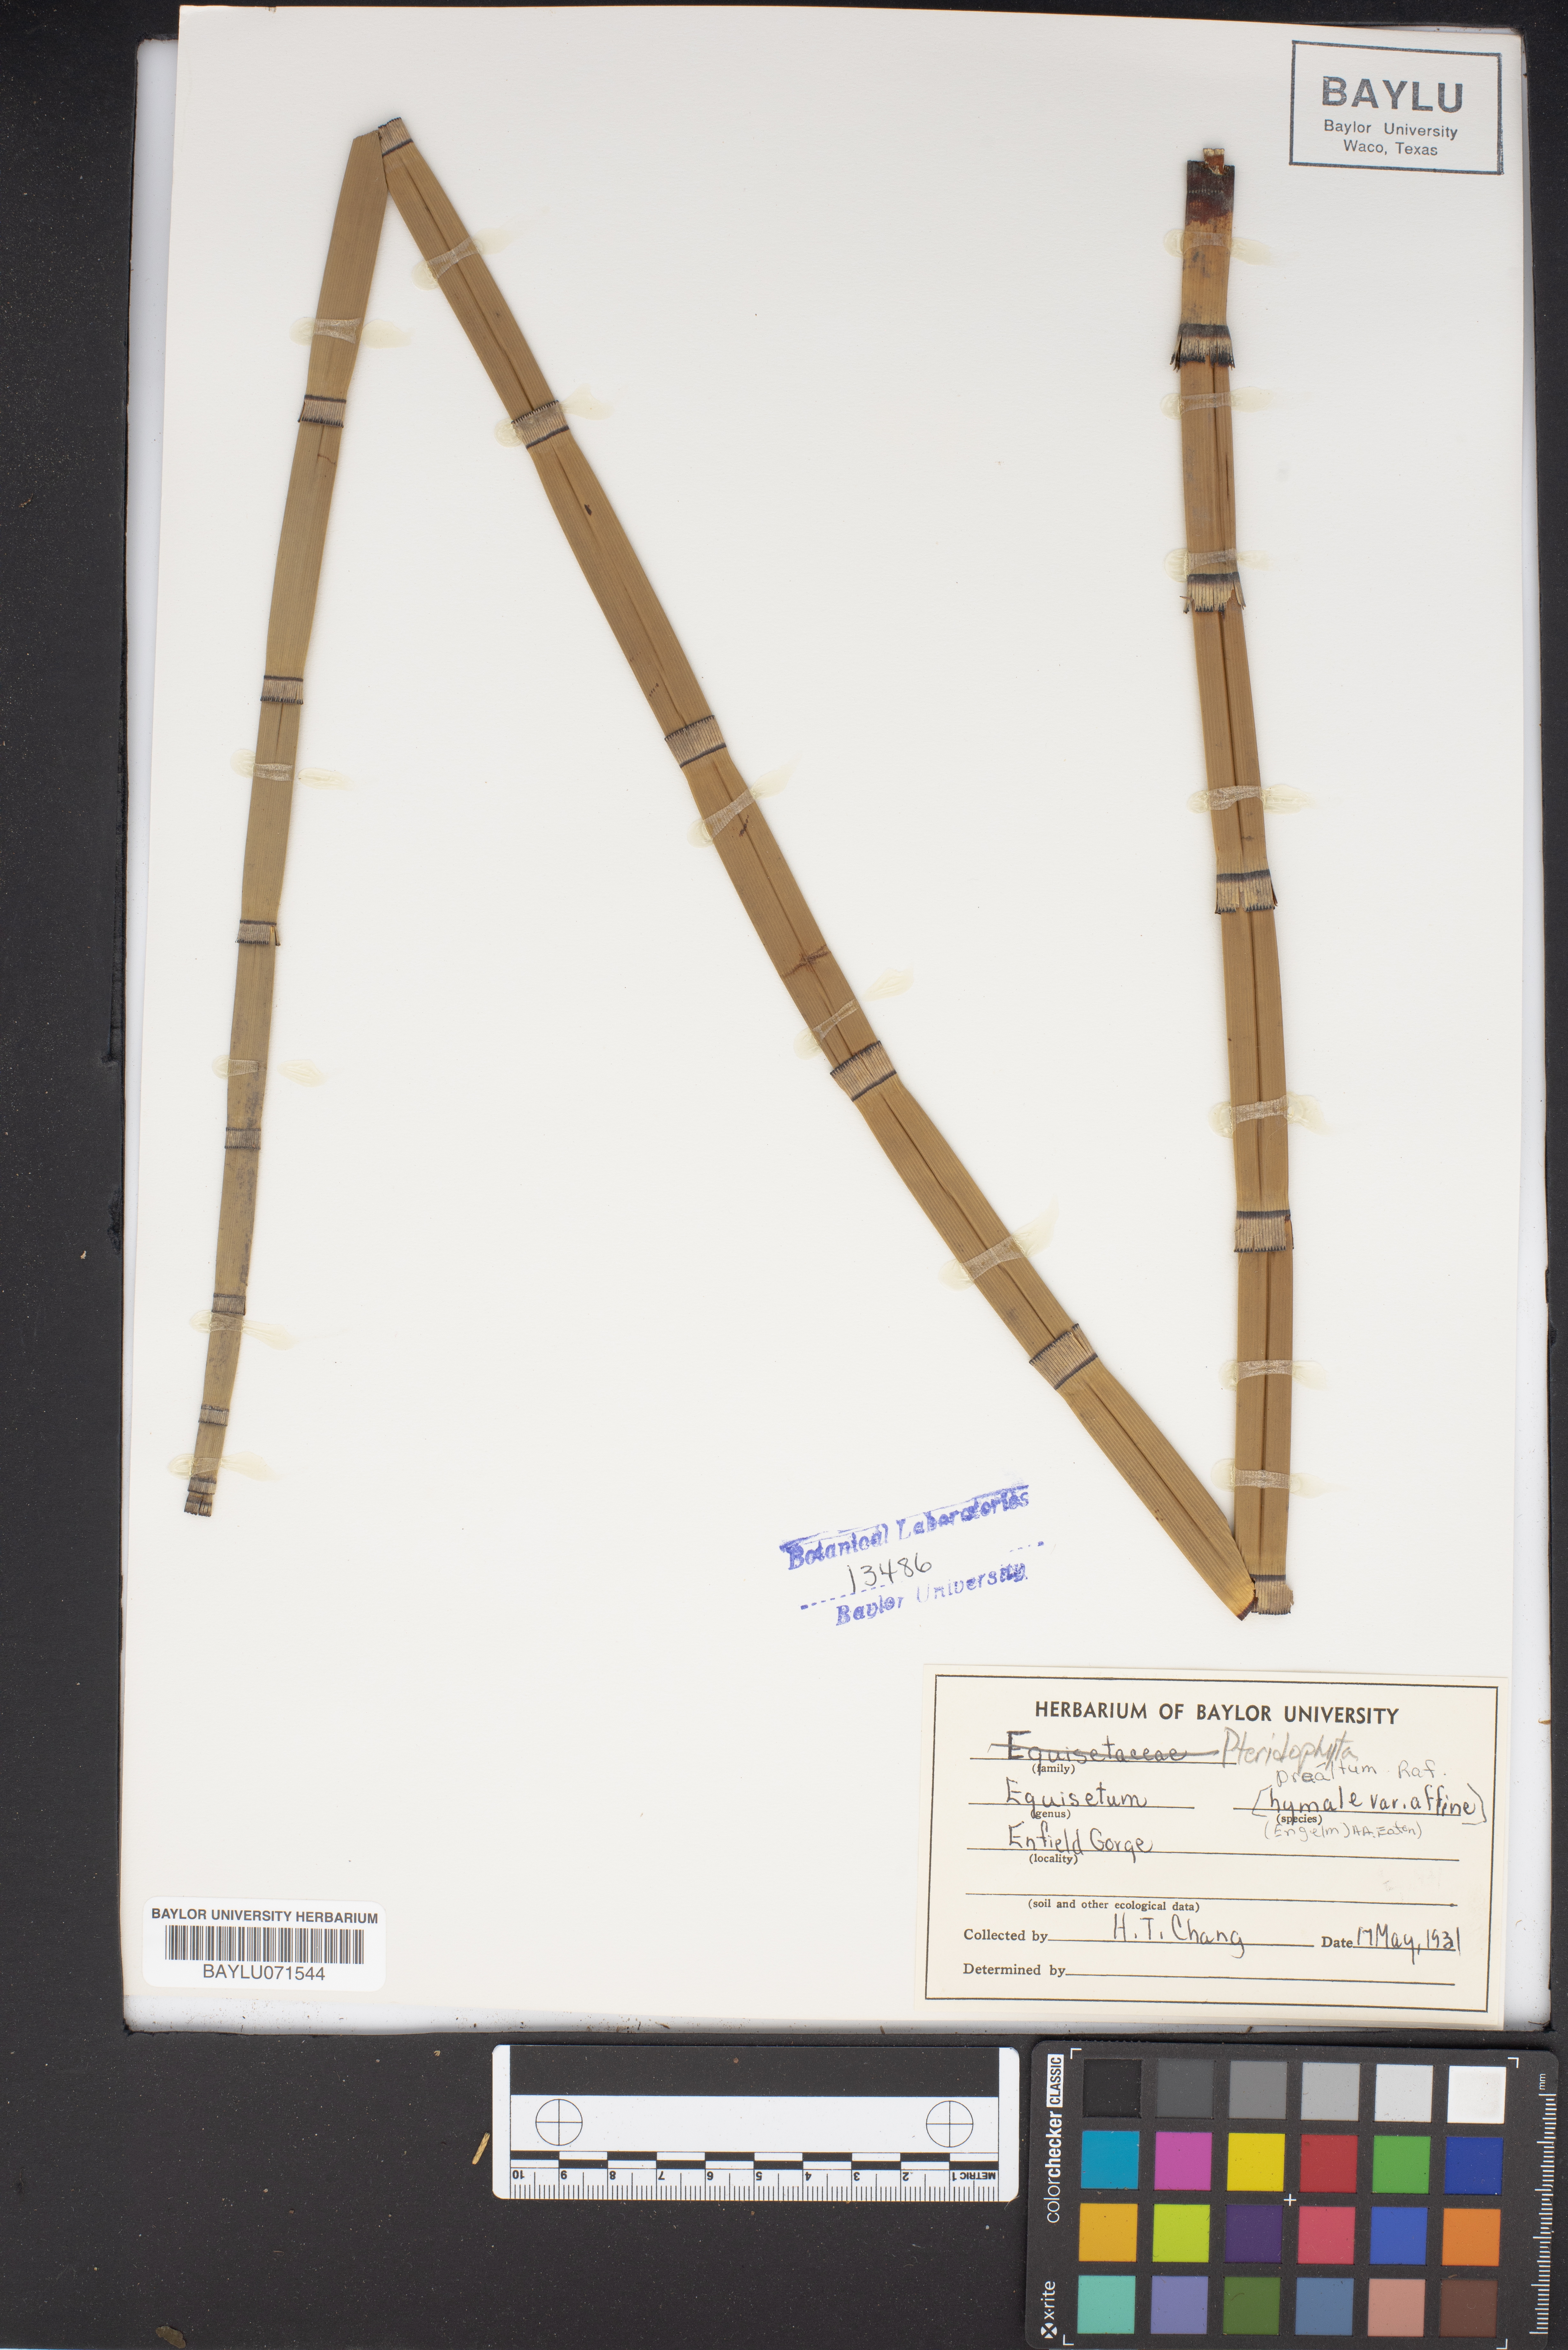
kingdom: Plantae
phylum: Tracheophyta
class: Polypodiopsida
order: Equisetales
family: Equisetaceae
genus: Equisetum
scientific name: Equisetum praealtum
